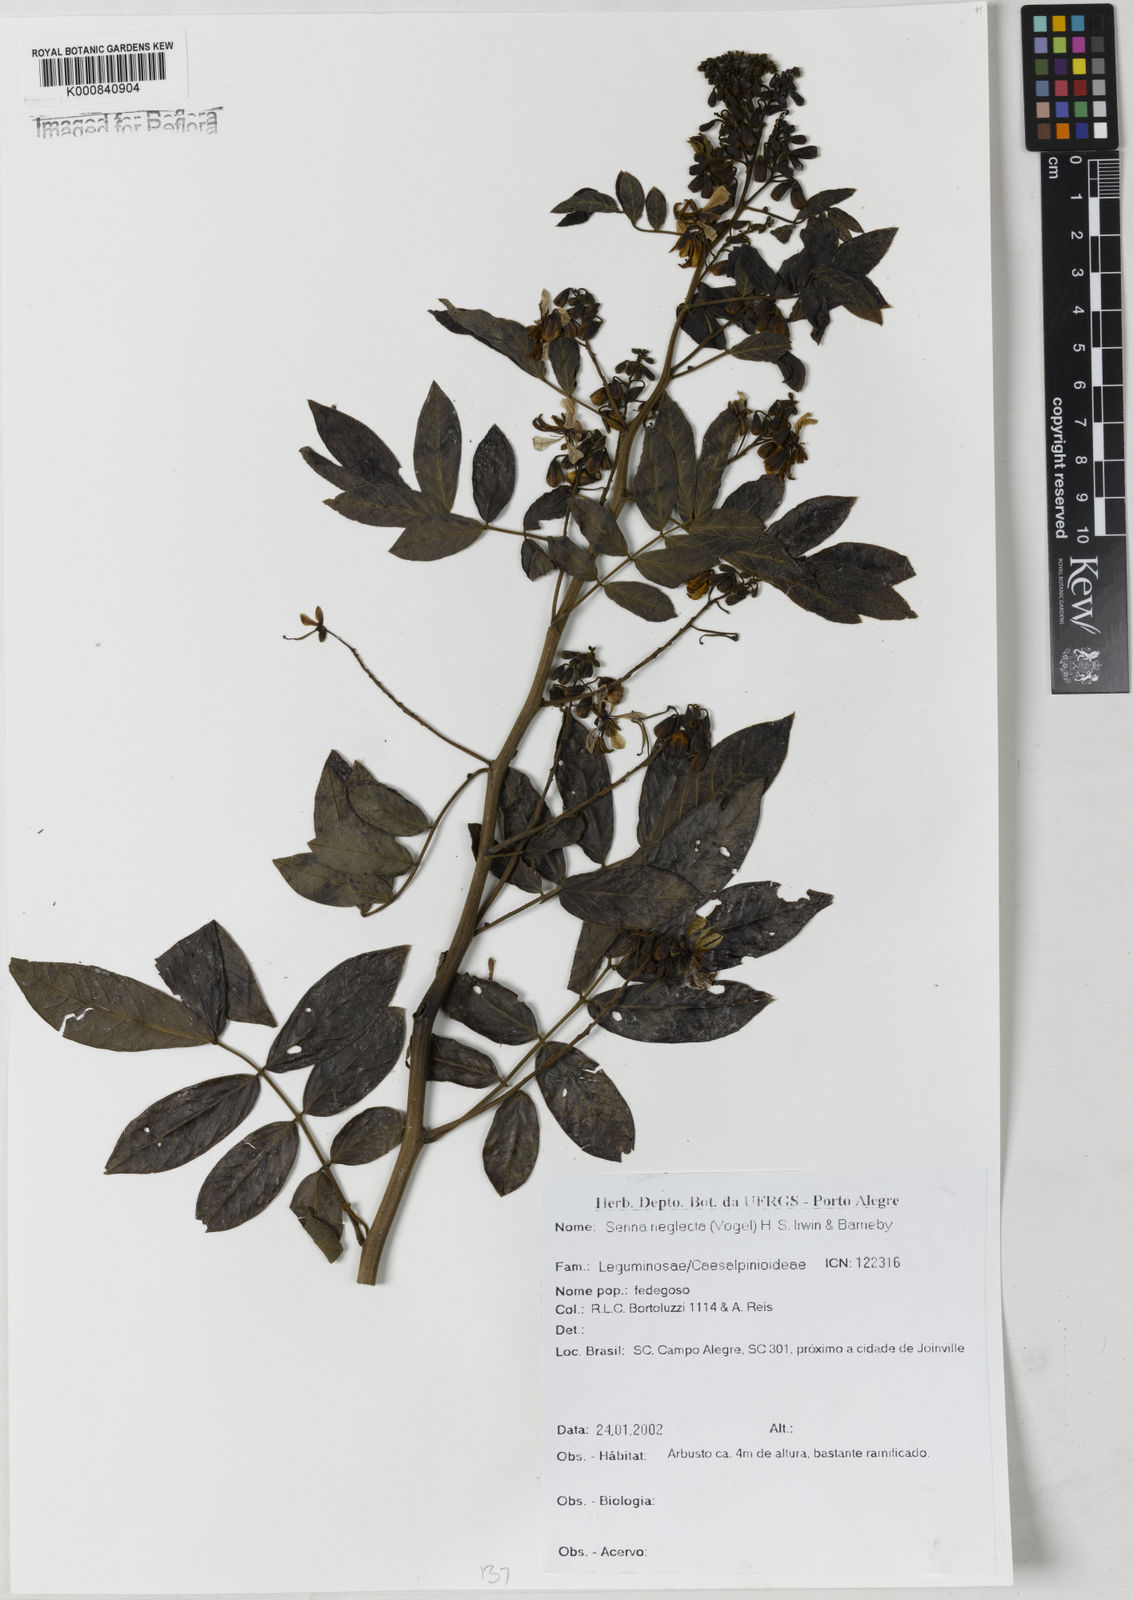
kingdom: Plantae
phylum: Tracheophyta
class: Magnoliopsida
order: Fabales
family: Fabaceae
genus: Senna
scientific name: Senna neglecta
